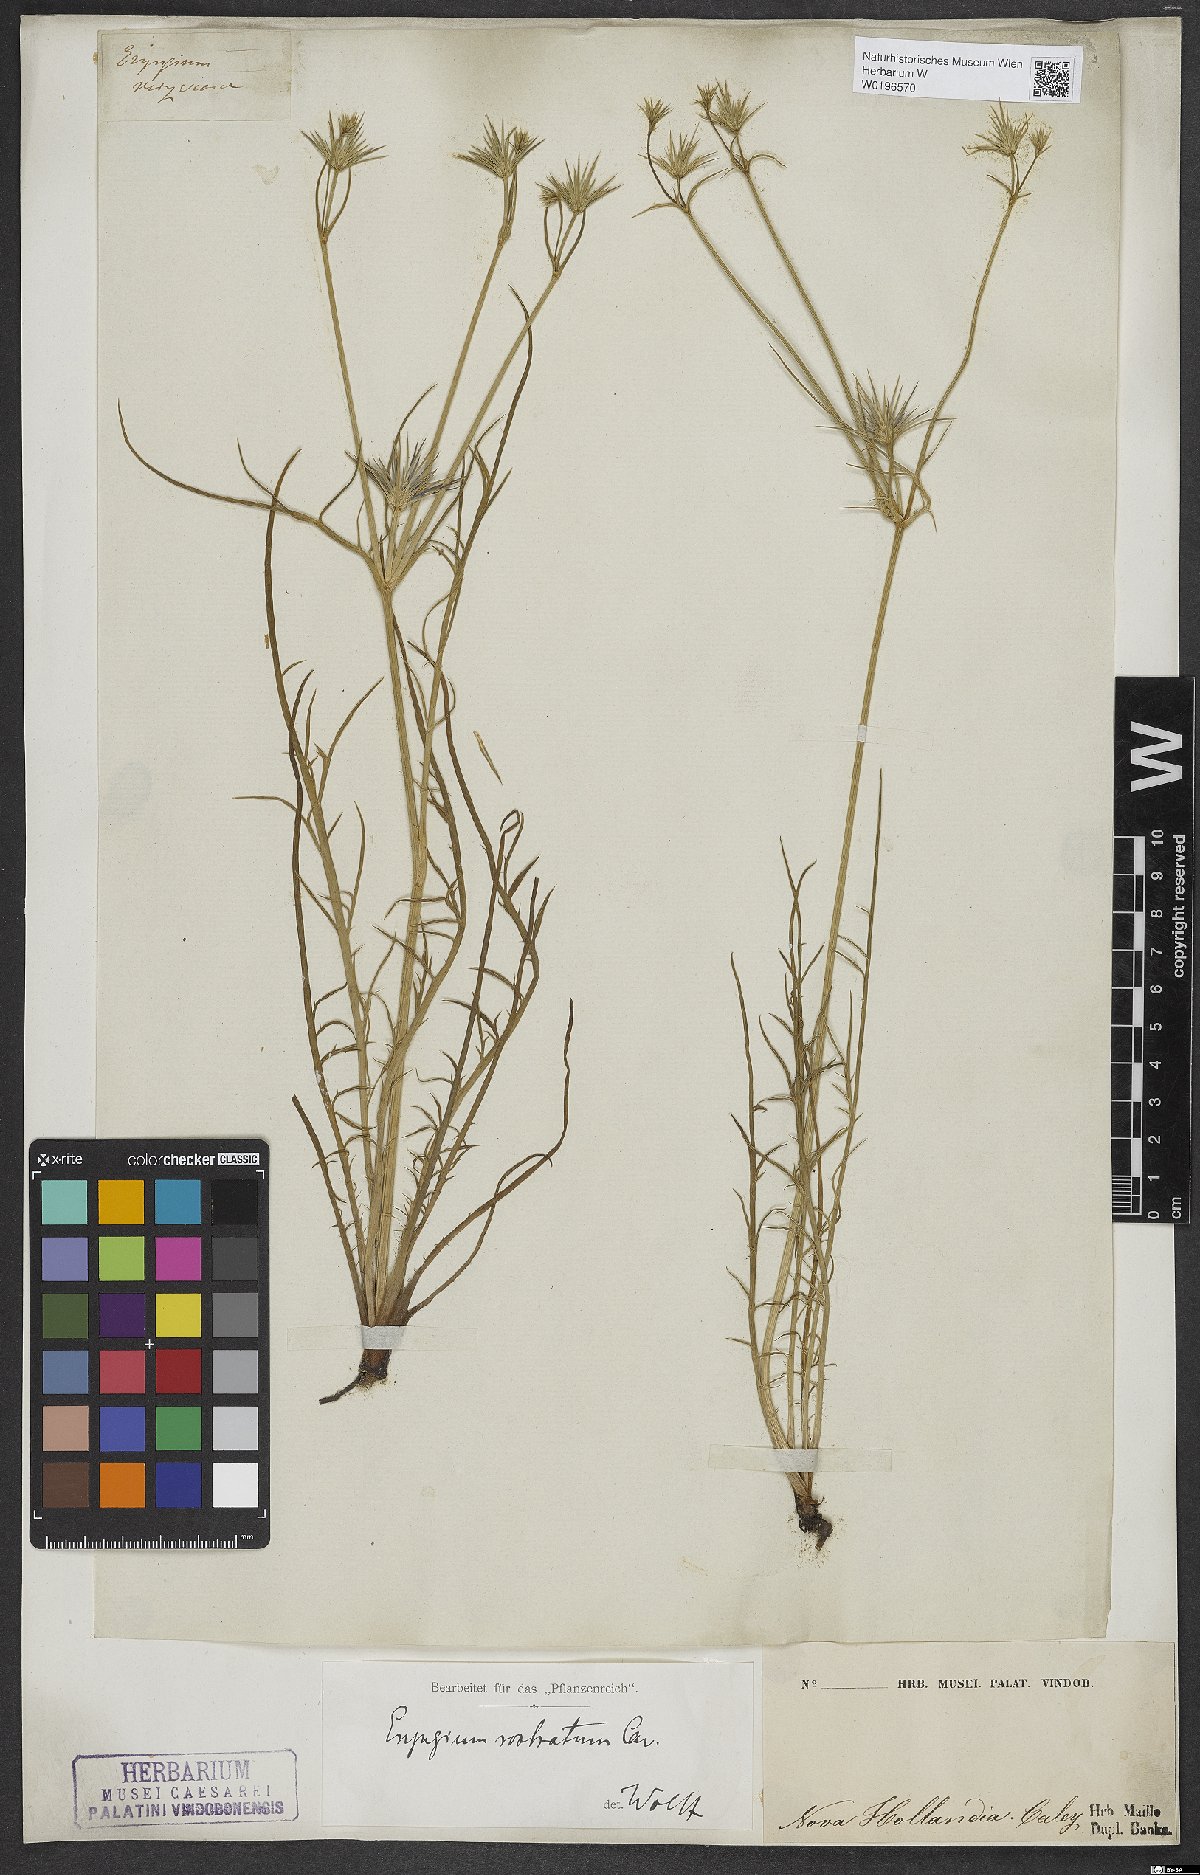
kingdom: Plantae
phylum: Tracheophyta
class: Magnoliopsida
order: Apiales
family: Apiaceae
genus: Eryngium
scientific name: Eryngium rostratum
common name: Blue eryngo
